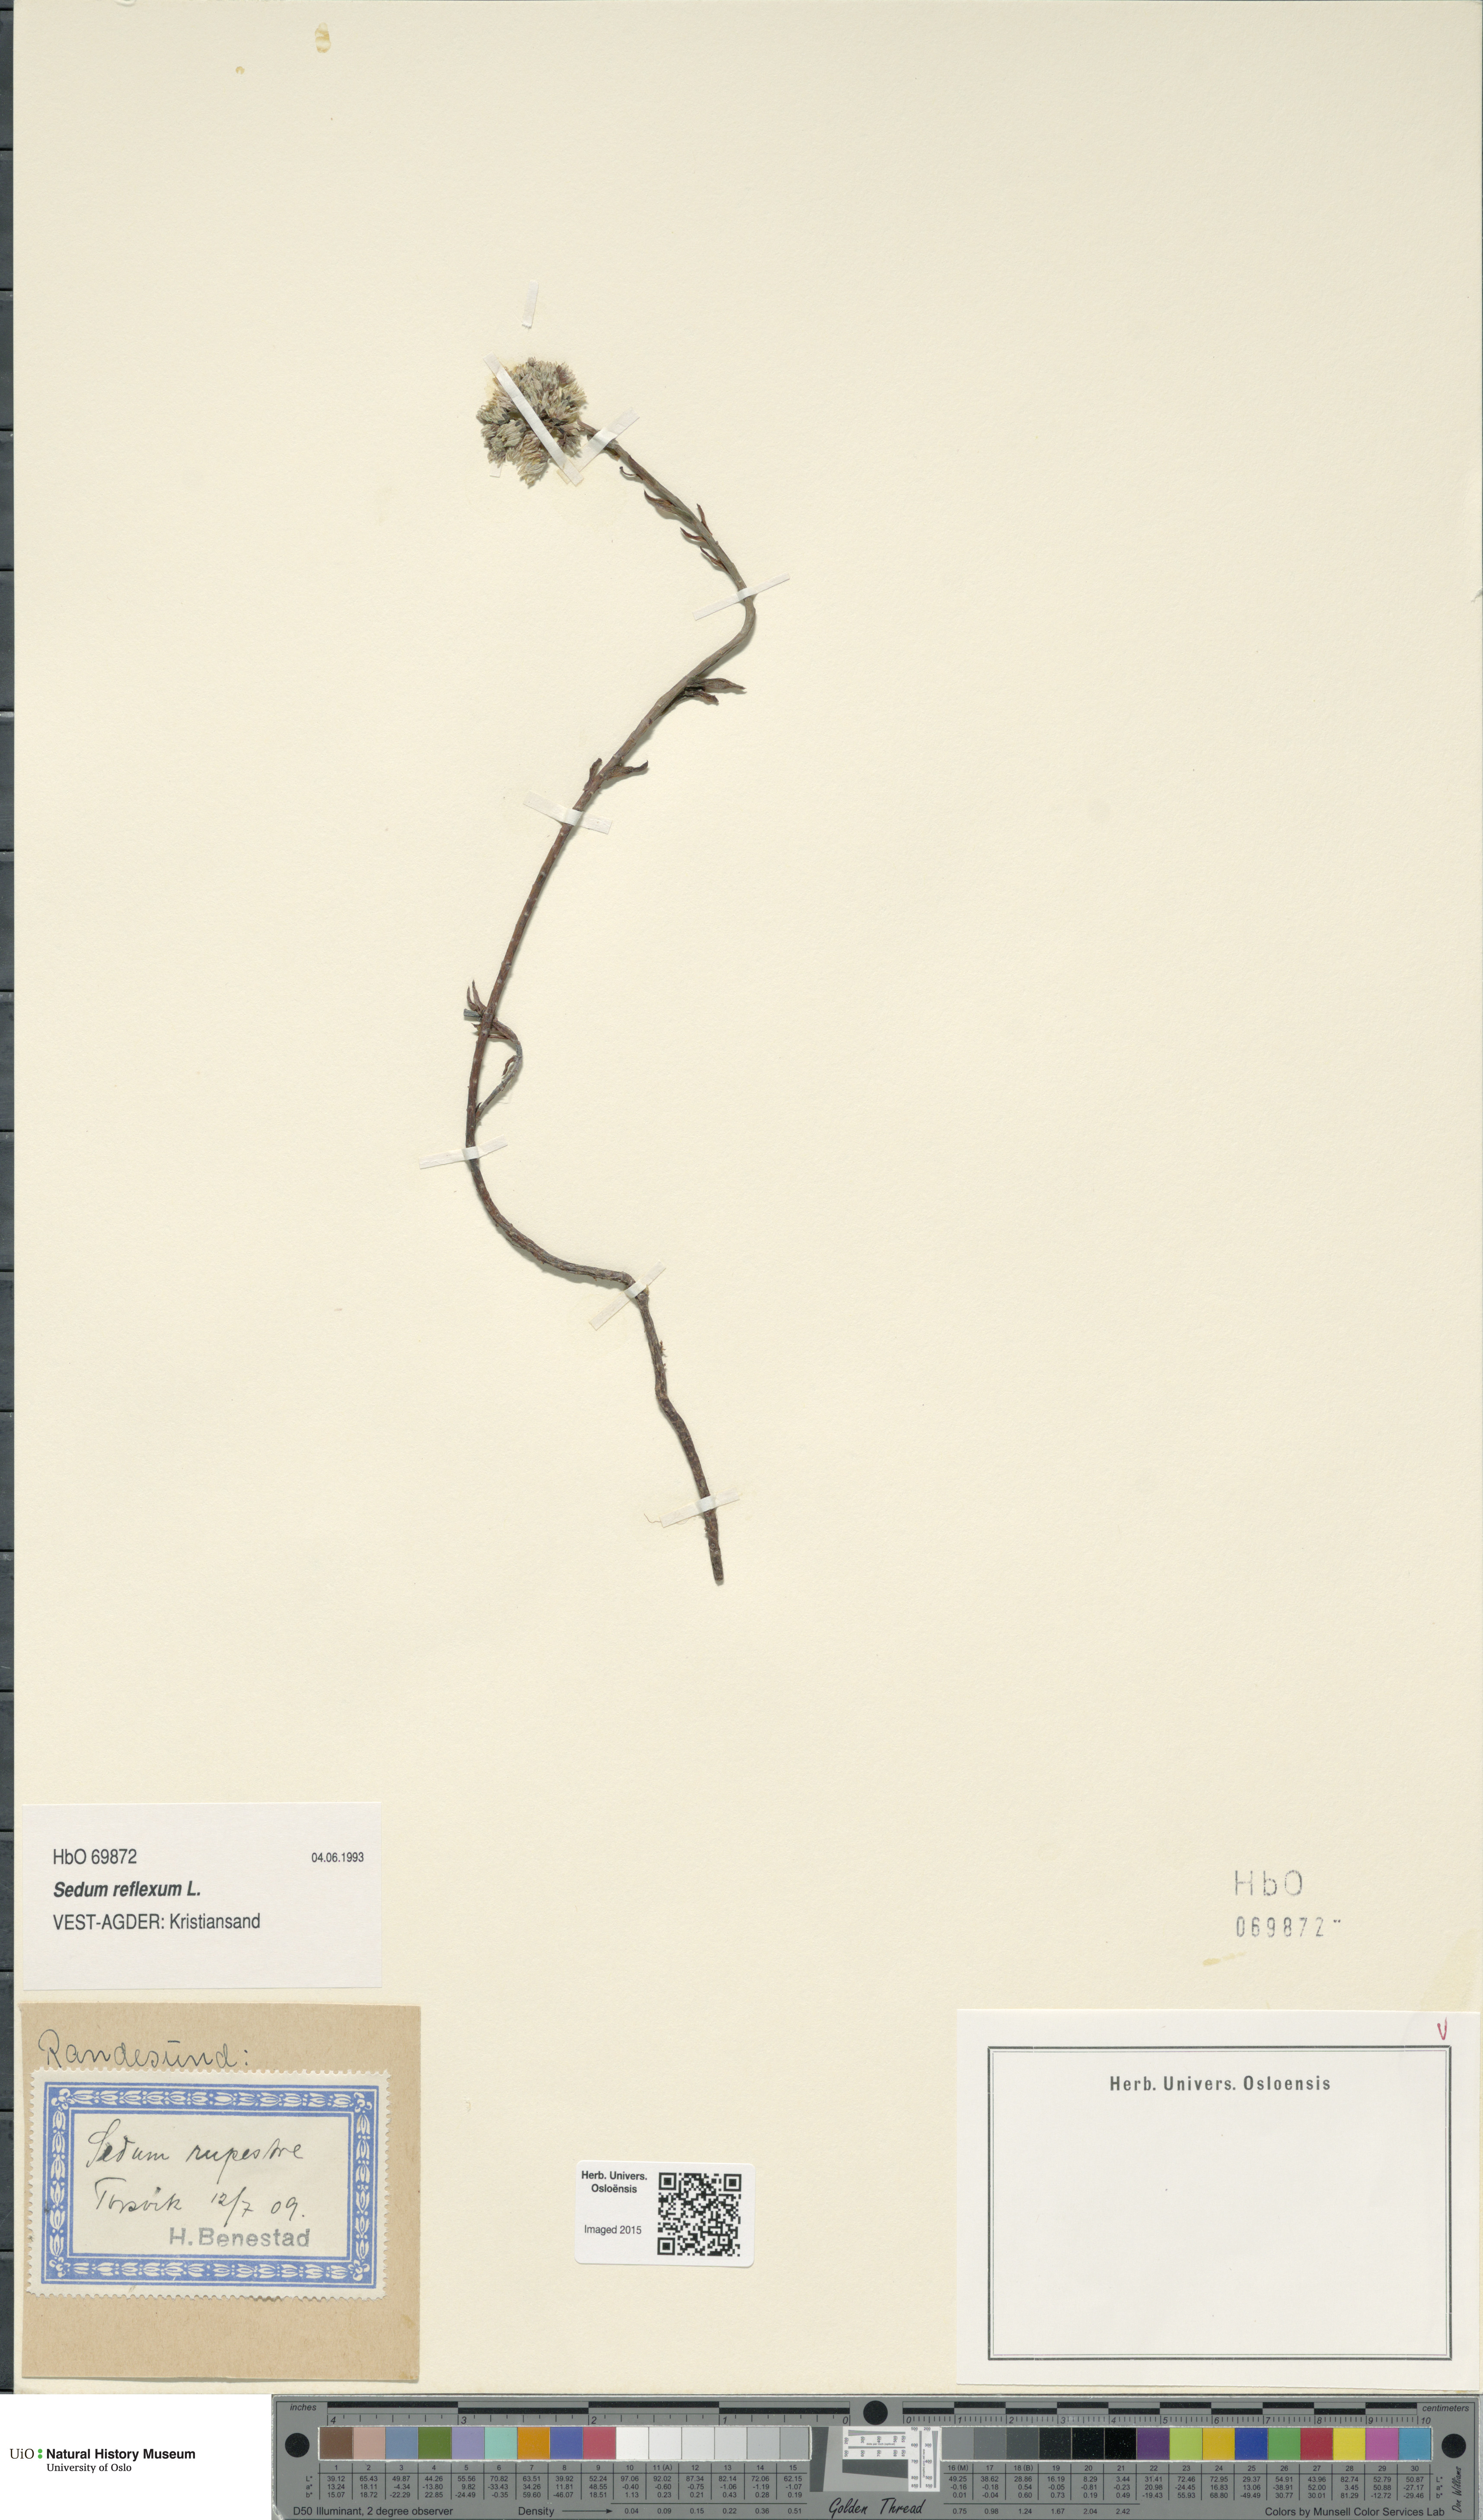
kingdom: Plantae
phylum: Tracheophyta
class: Magnoliopsida
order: Saxifragales
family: Crassulaceae
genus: Petrosedum
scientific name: Petrosedum rupestre
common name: Jenny's stonecrop
